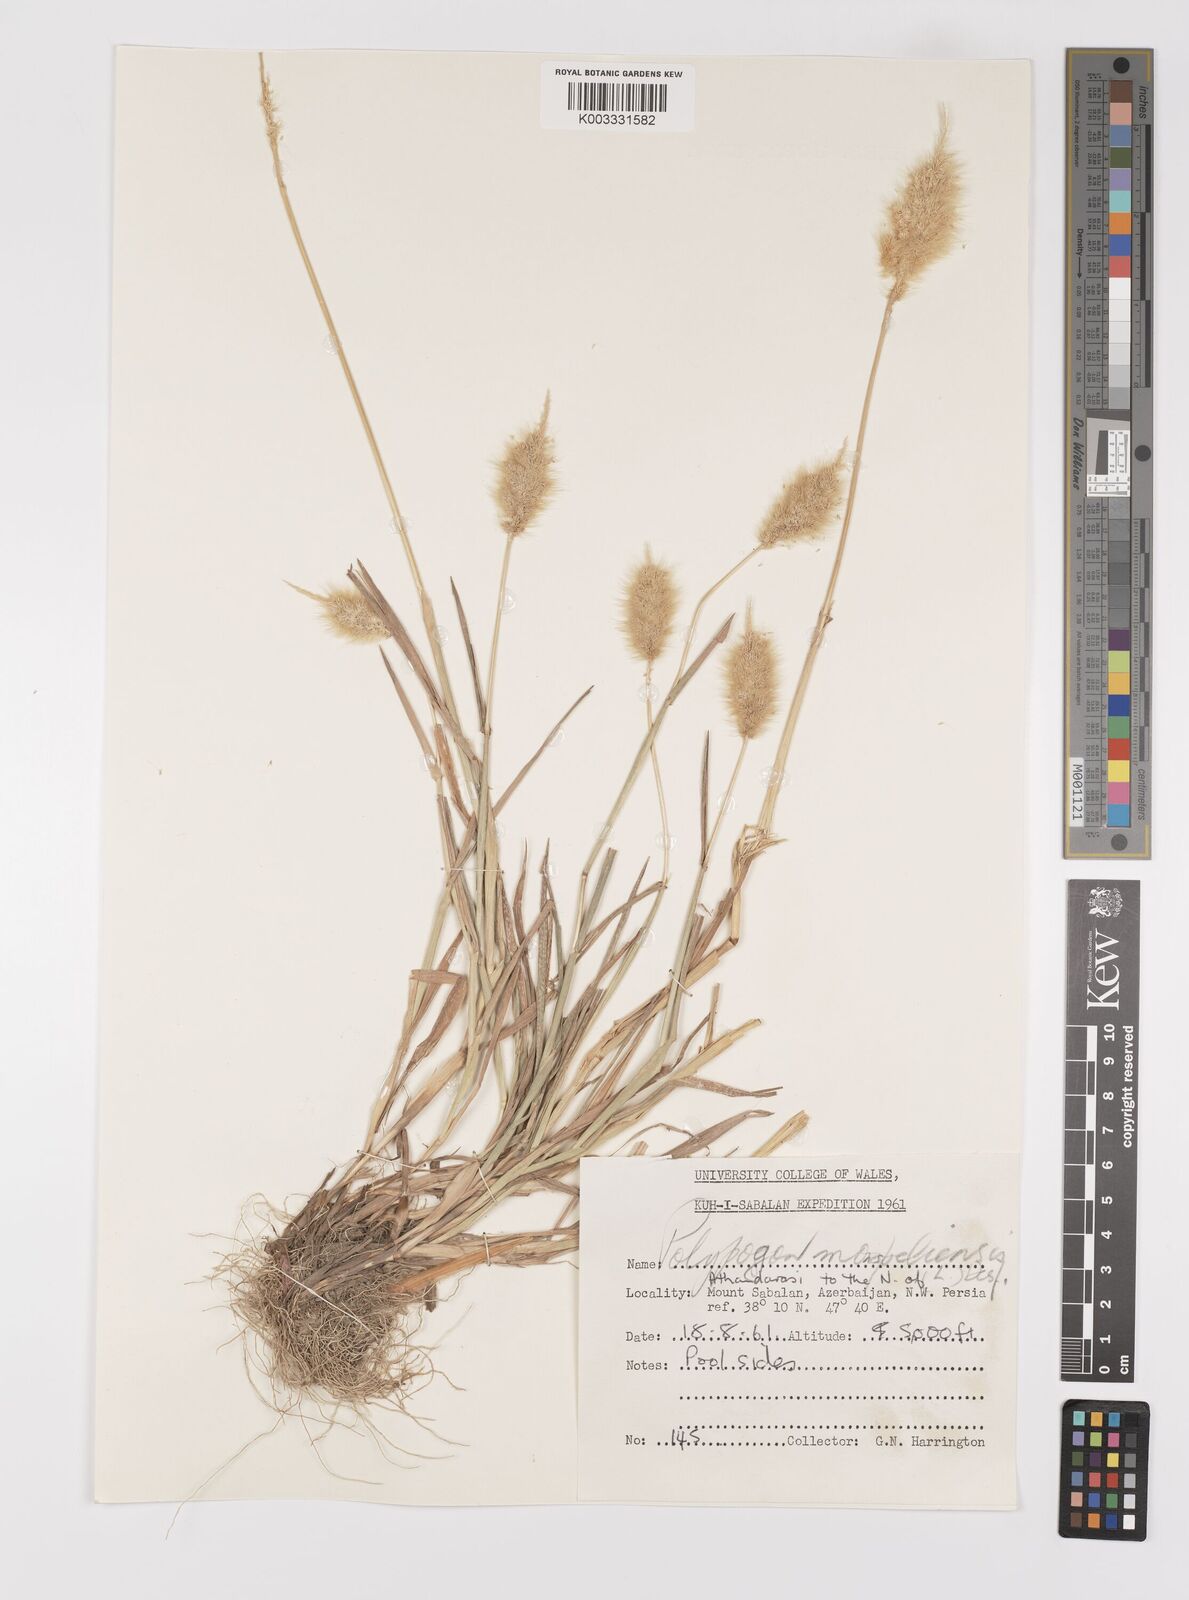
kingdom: Plantae
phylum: Tracheophyta
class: Liliopsida
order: Poales
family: Poaceae
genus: Polypogon
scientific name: Polypogon monspeliensis
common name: Annual rabbitsfoot grass
